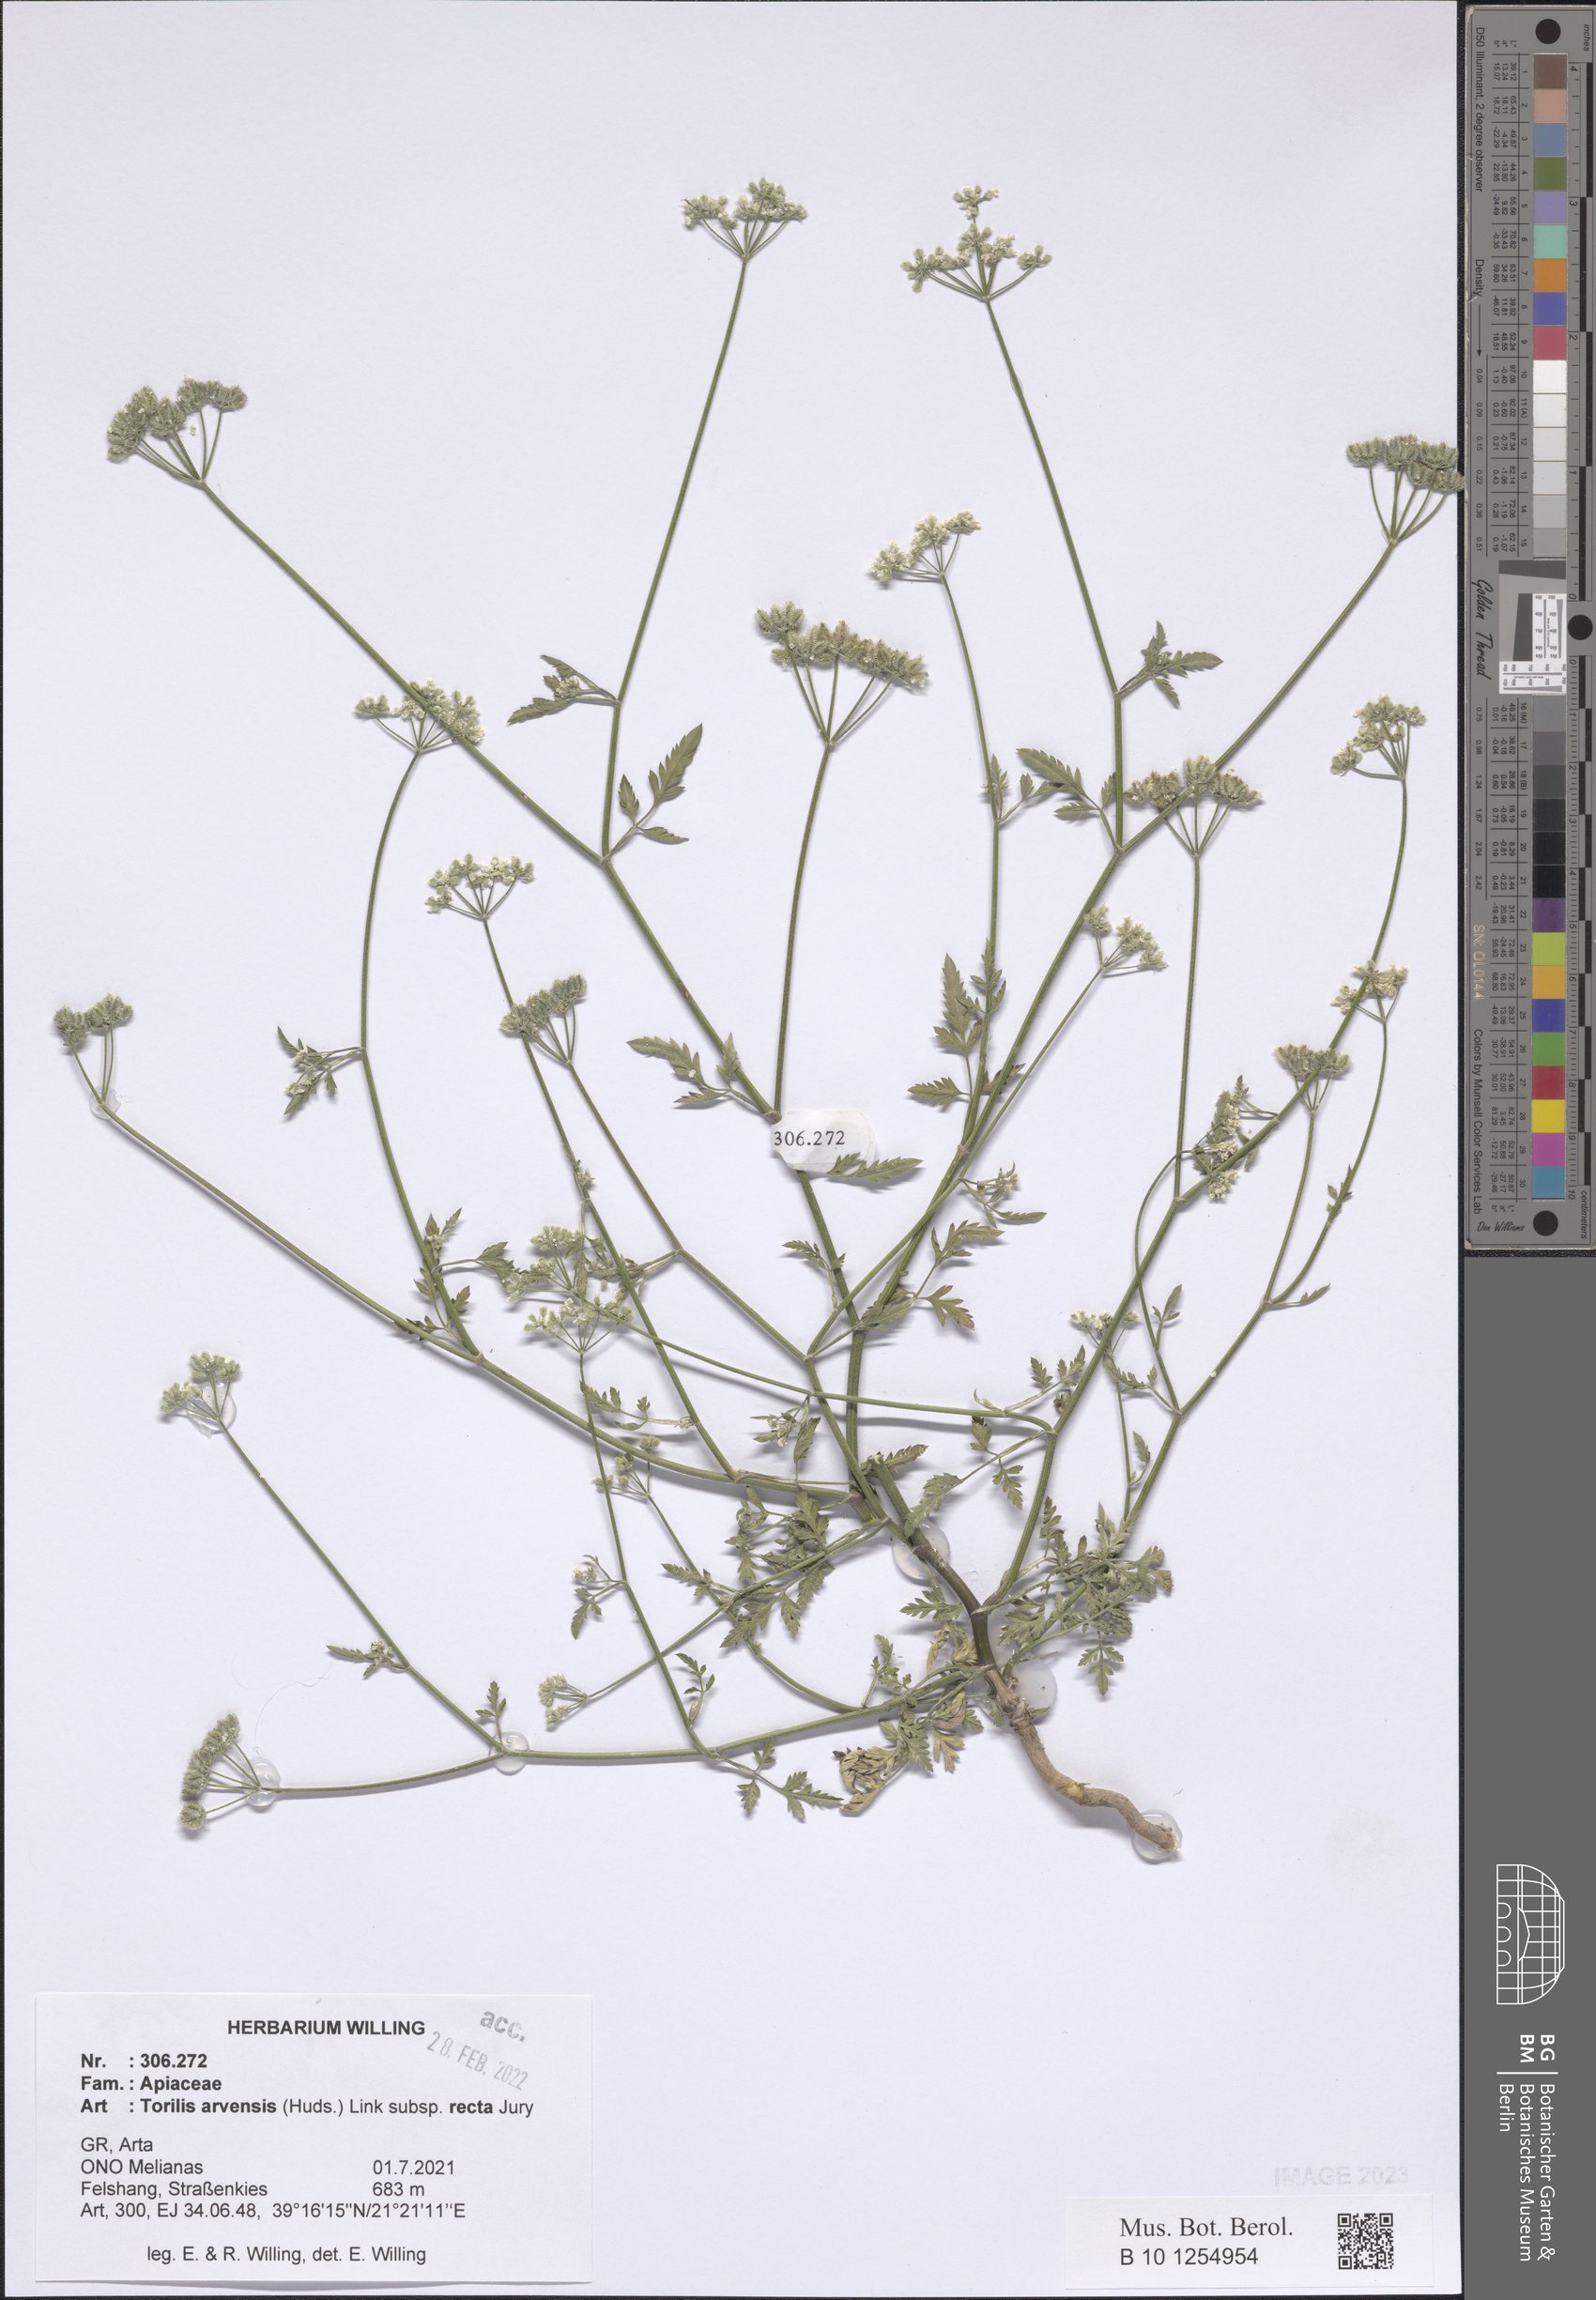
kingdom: Plantae
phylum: Tracheophyta
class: Magnoliopsida
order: Apiales
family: Apiaceae
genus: Torilis
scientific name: Torilis arvensis
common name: Spreading hedge-parsley
